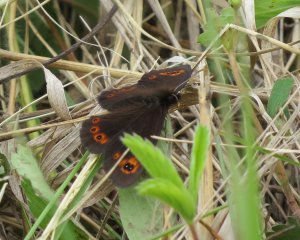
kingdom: Animalia
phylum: Arthropoda
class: Insecta
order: Lepidoptera
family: Nymphalidae
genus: Erebia
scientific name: Erebia epipsodea
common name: Common Alpine
